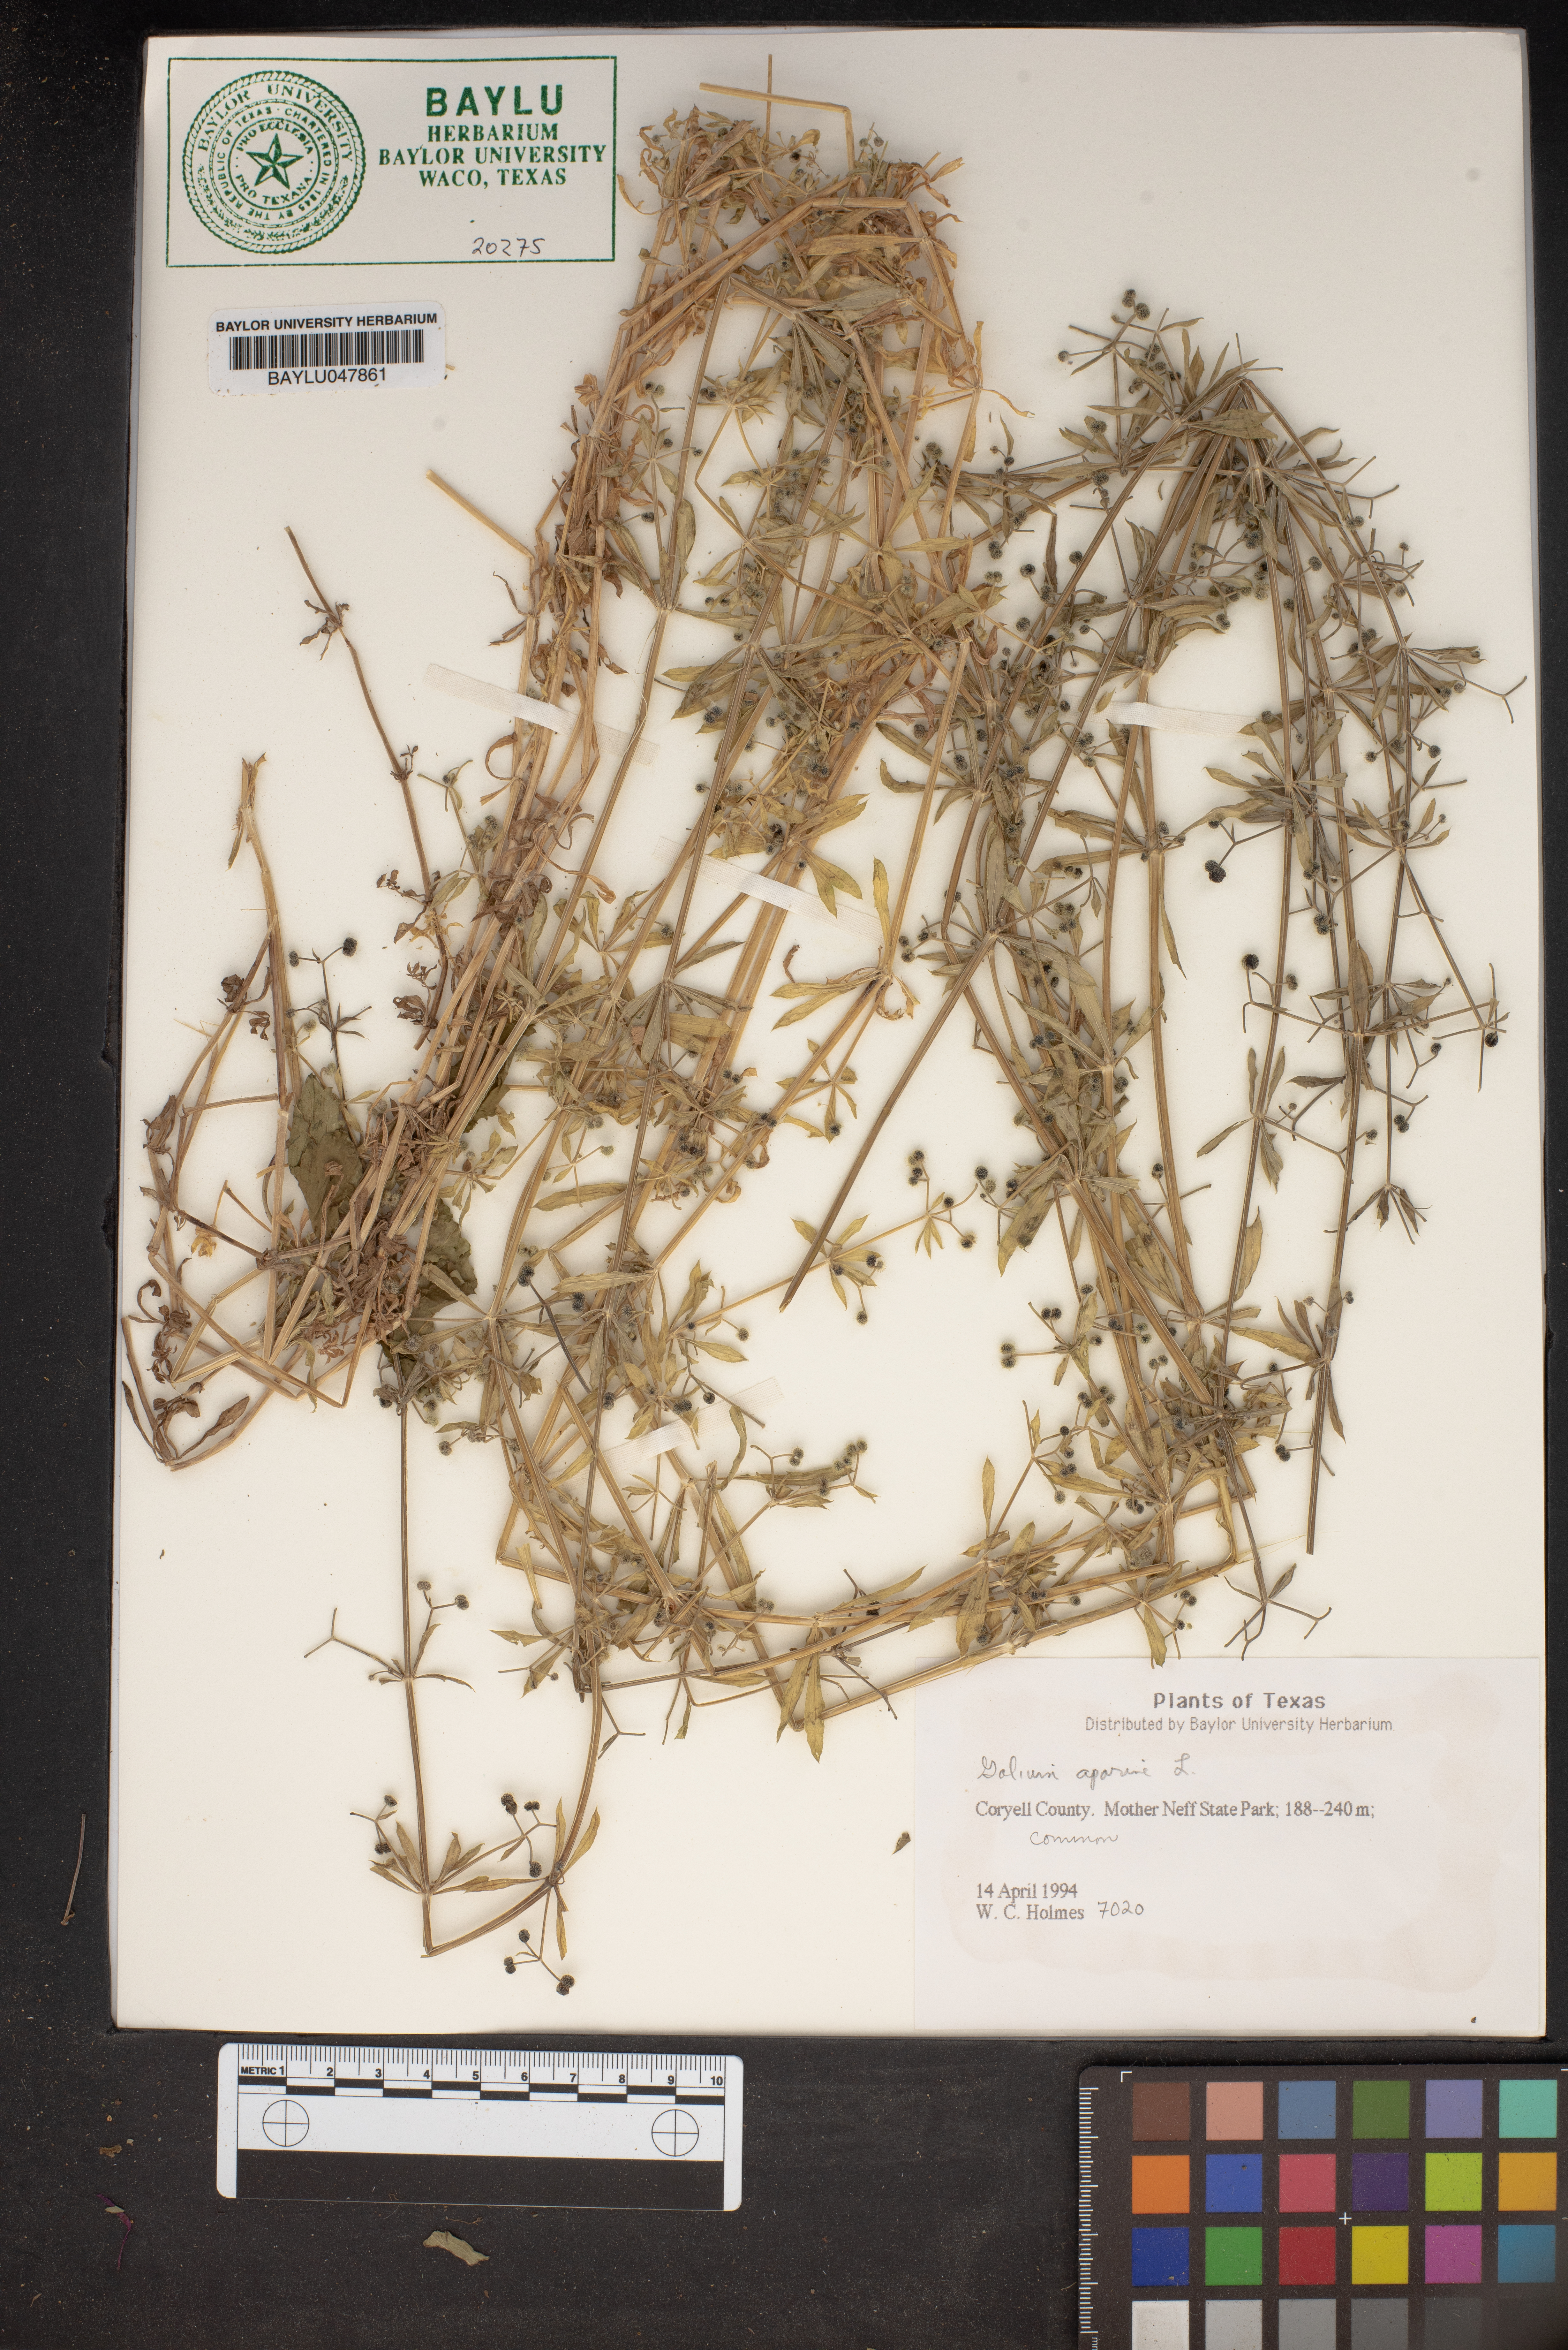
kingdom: Plantae
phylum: Tracheophyta
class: Magnoliopsida
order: Gentianales
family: Rubiaceae
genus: Galium
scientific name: Galium aparine
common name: Cleavers
